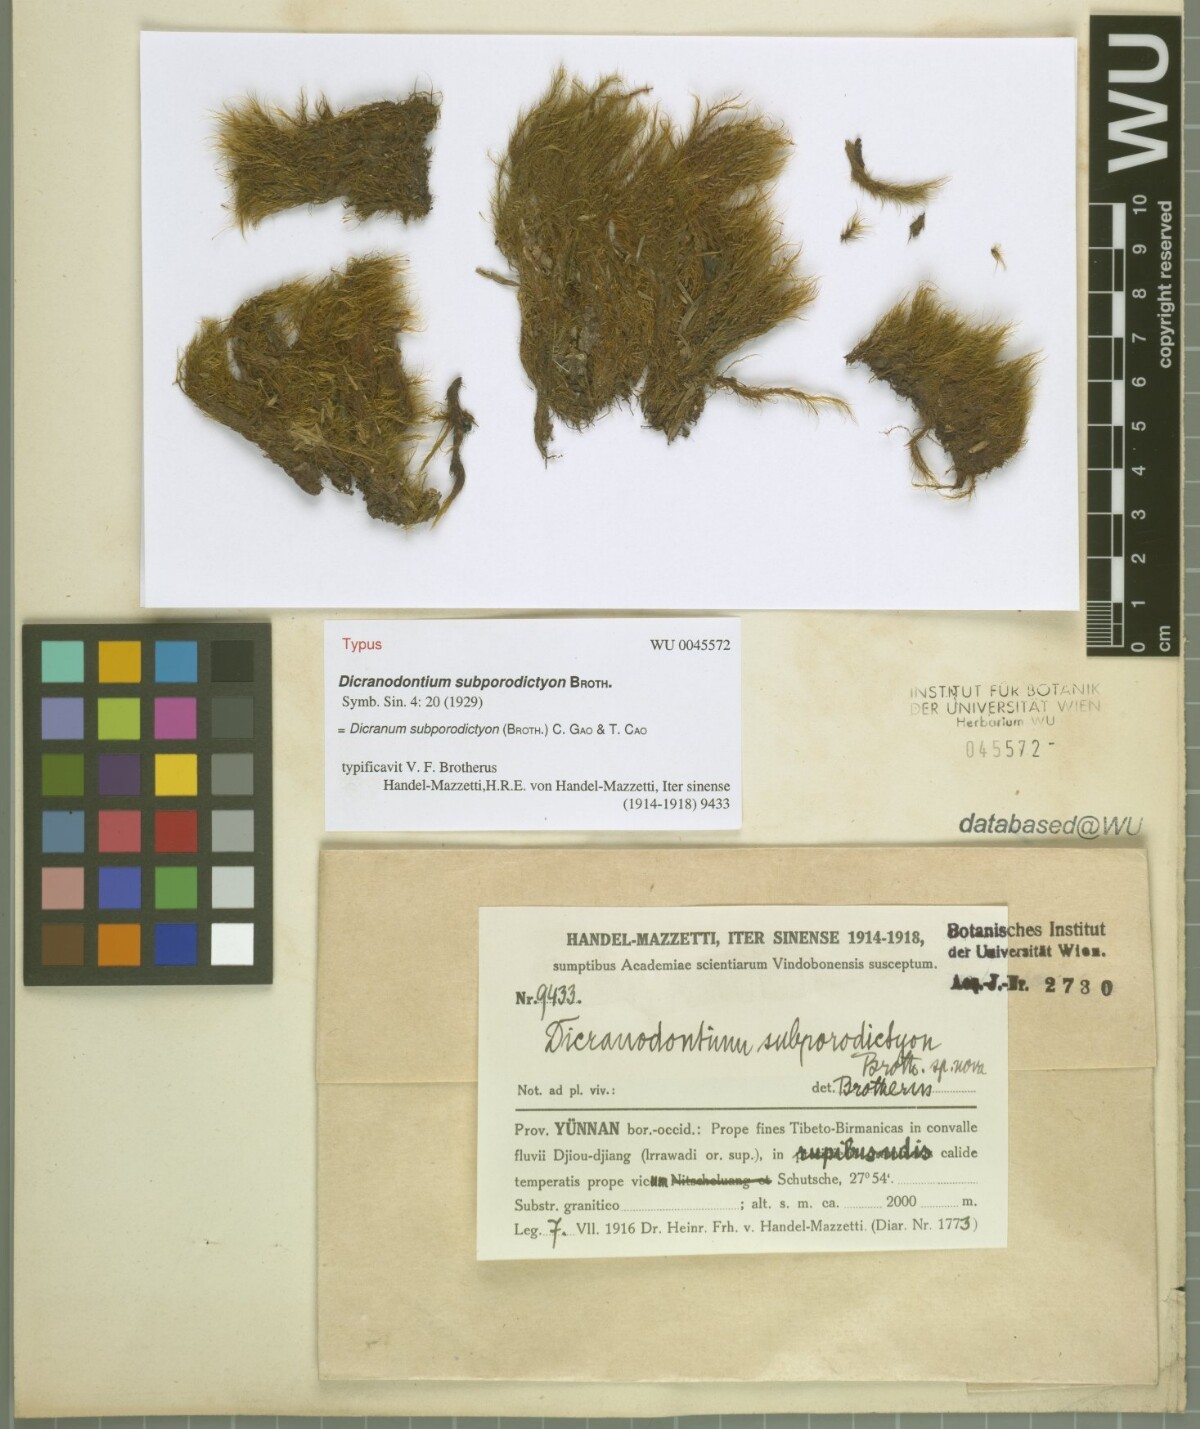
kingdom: Plantae
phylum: Bryophyta
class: Bryopsida
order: Dicranales
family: Leucobryaceae
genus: Atractylocarpus
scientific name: Atractylocarpus subporodictyon
